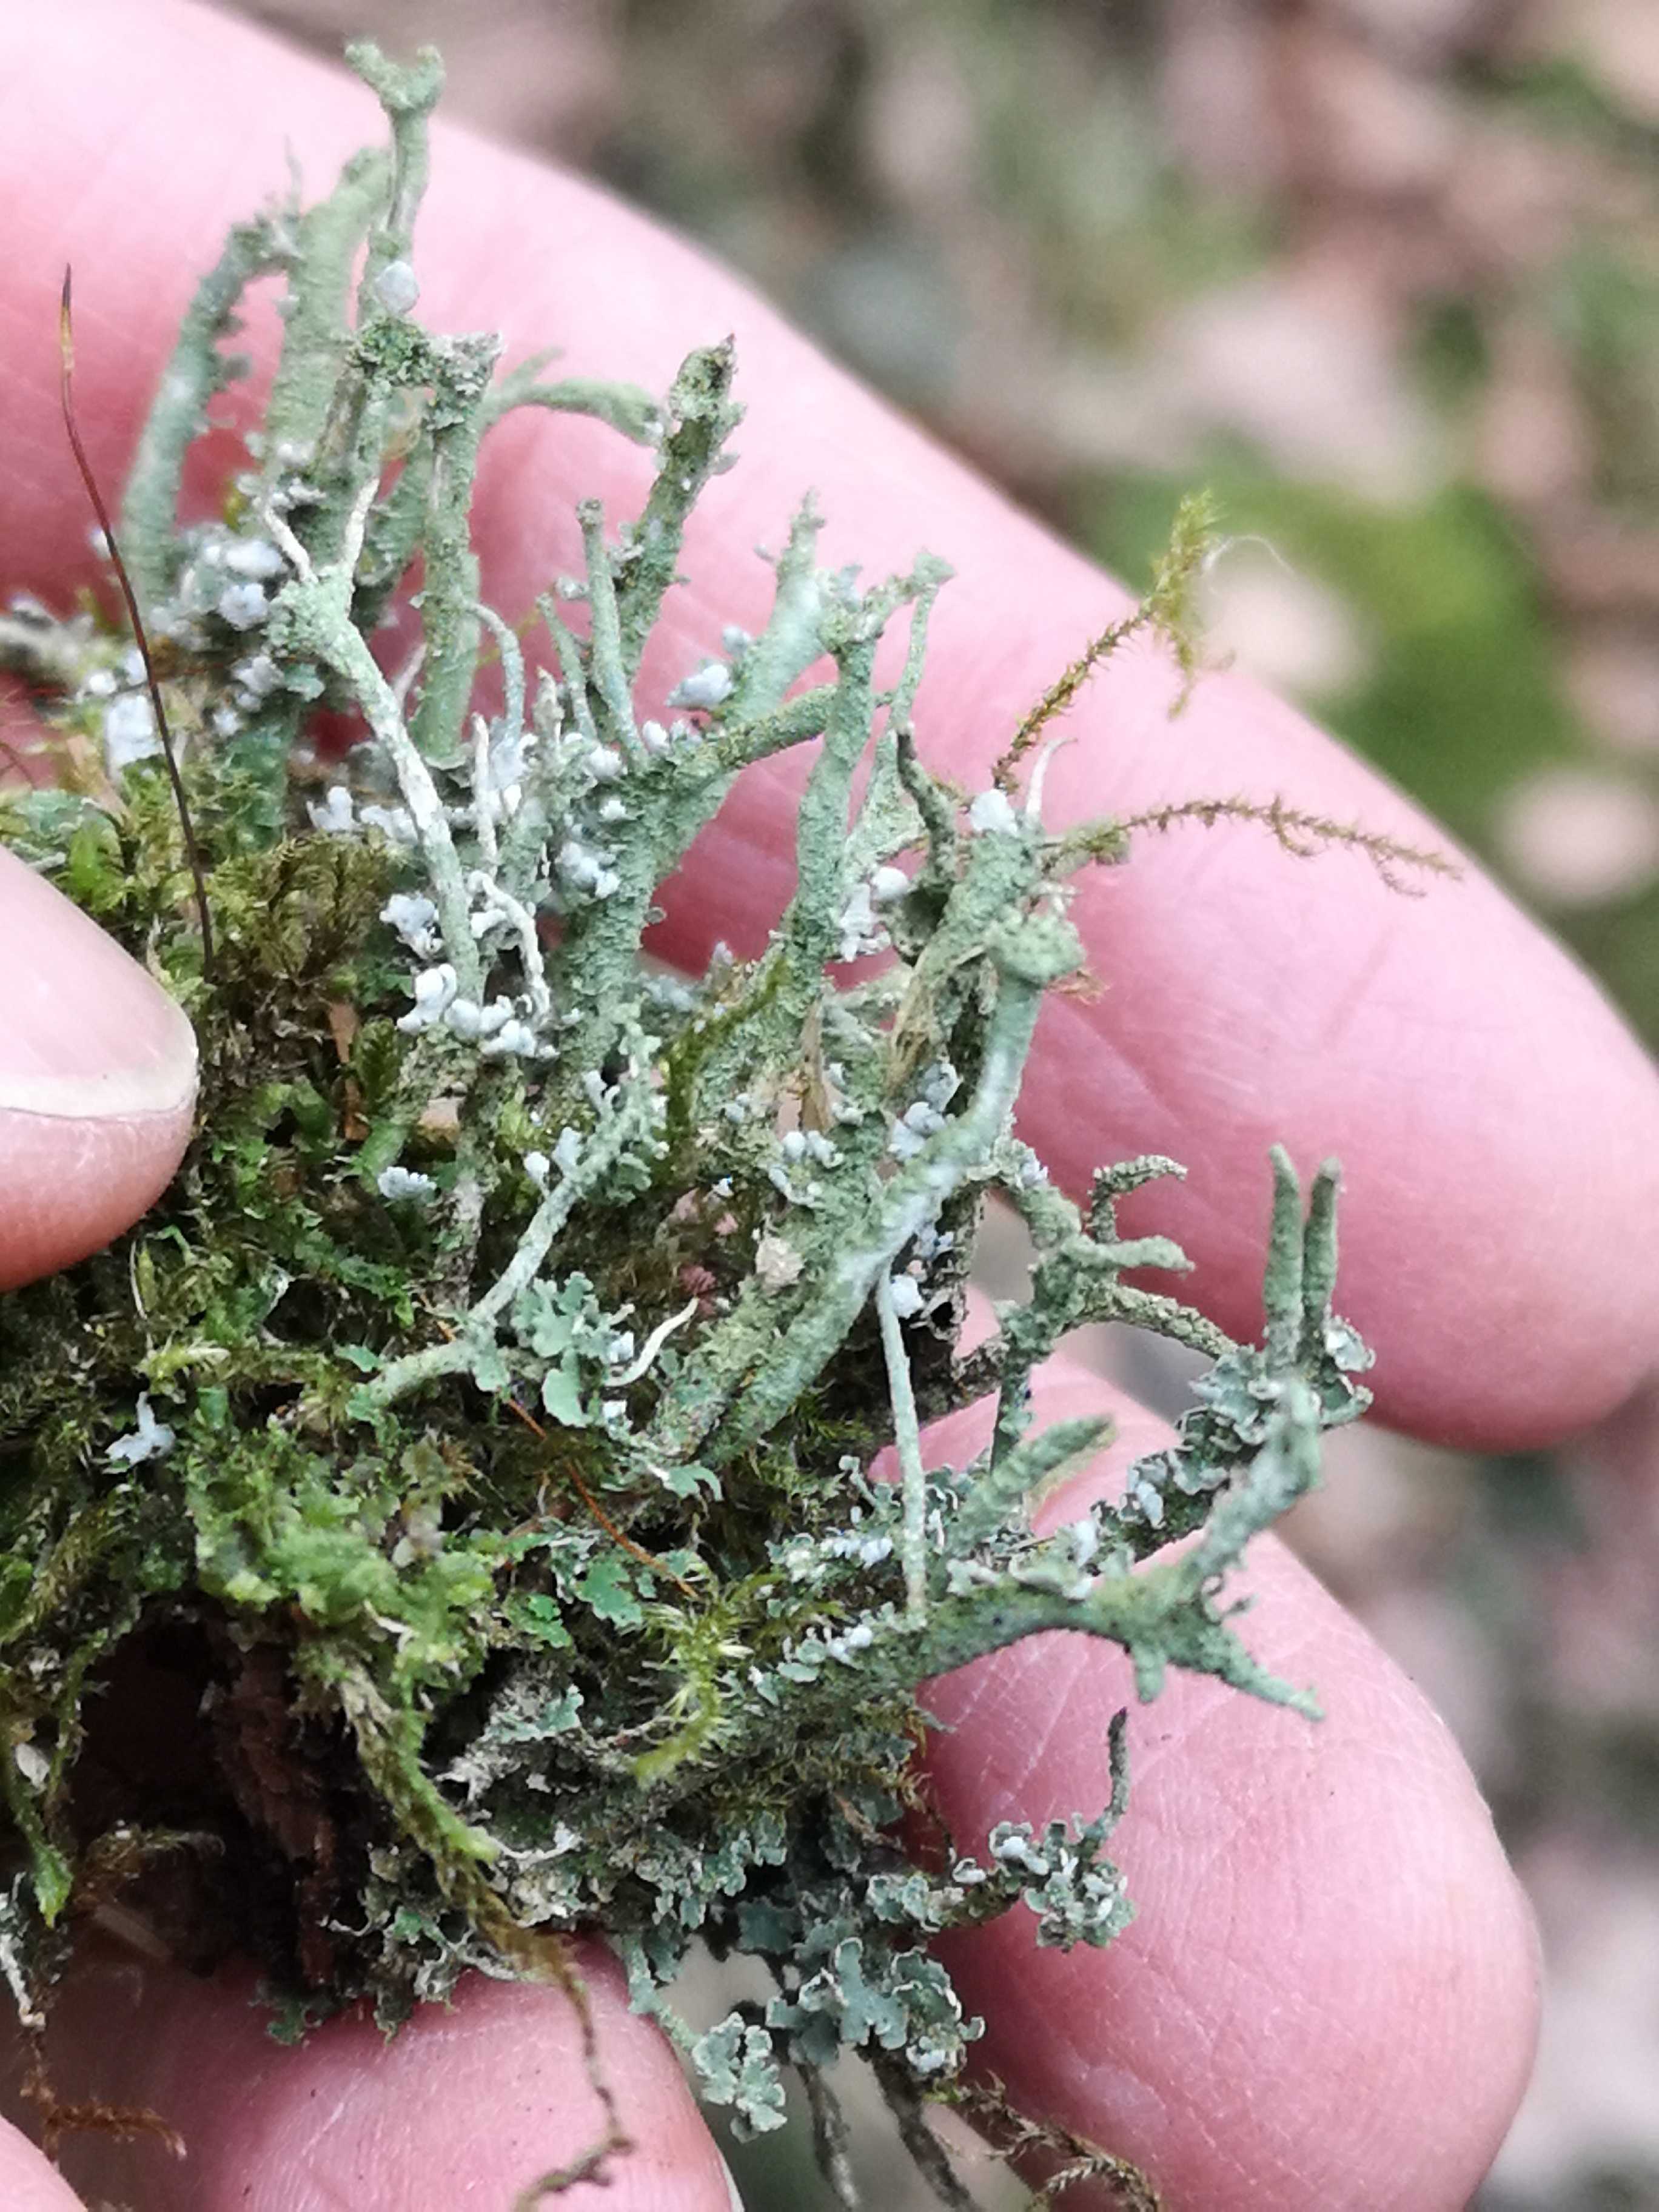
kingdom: Fungi
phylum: Ascomycota
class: Lecanoromycetes
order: Lecanorales
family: Cladoniaceae
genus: Cladonia
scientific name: Cladonia
